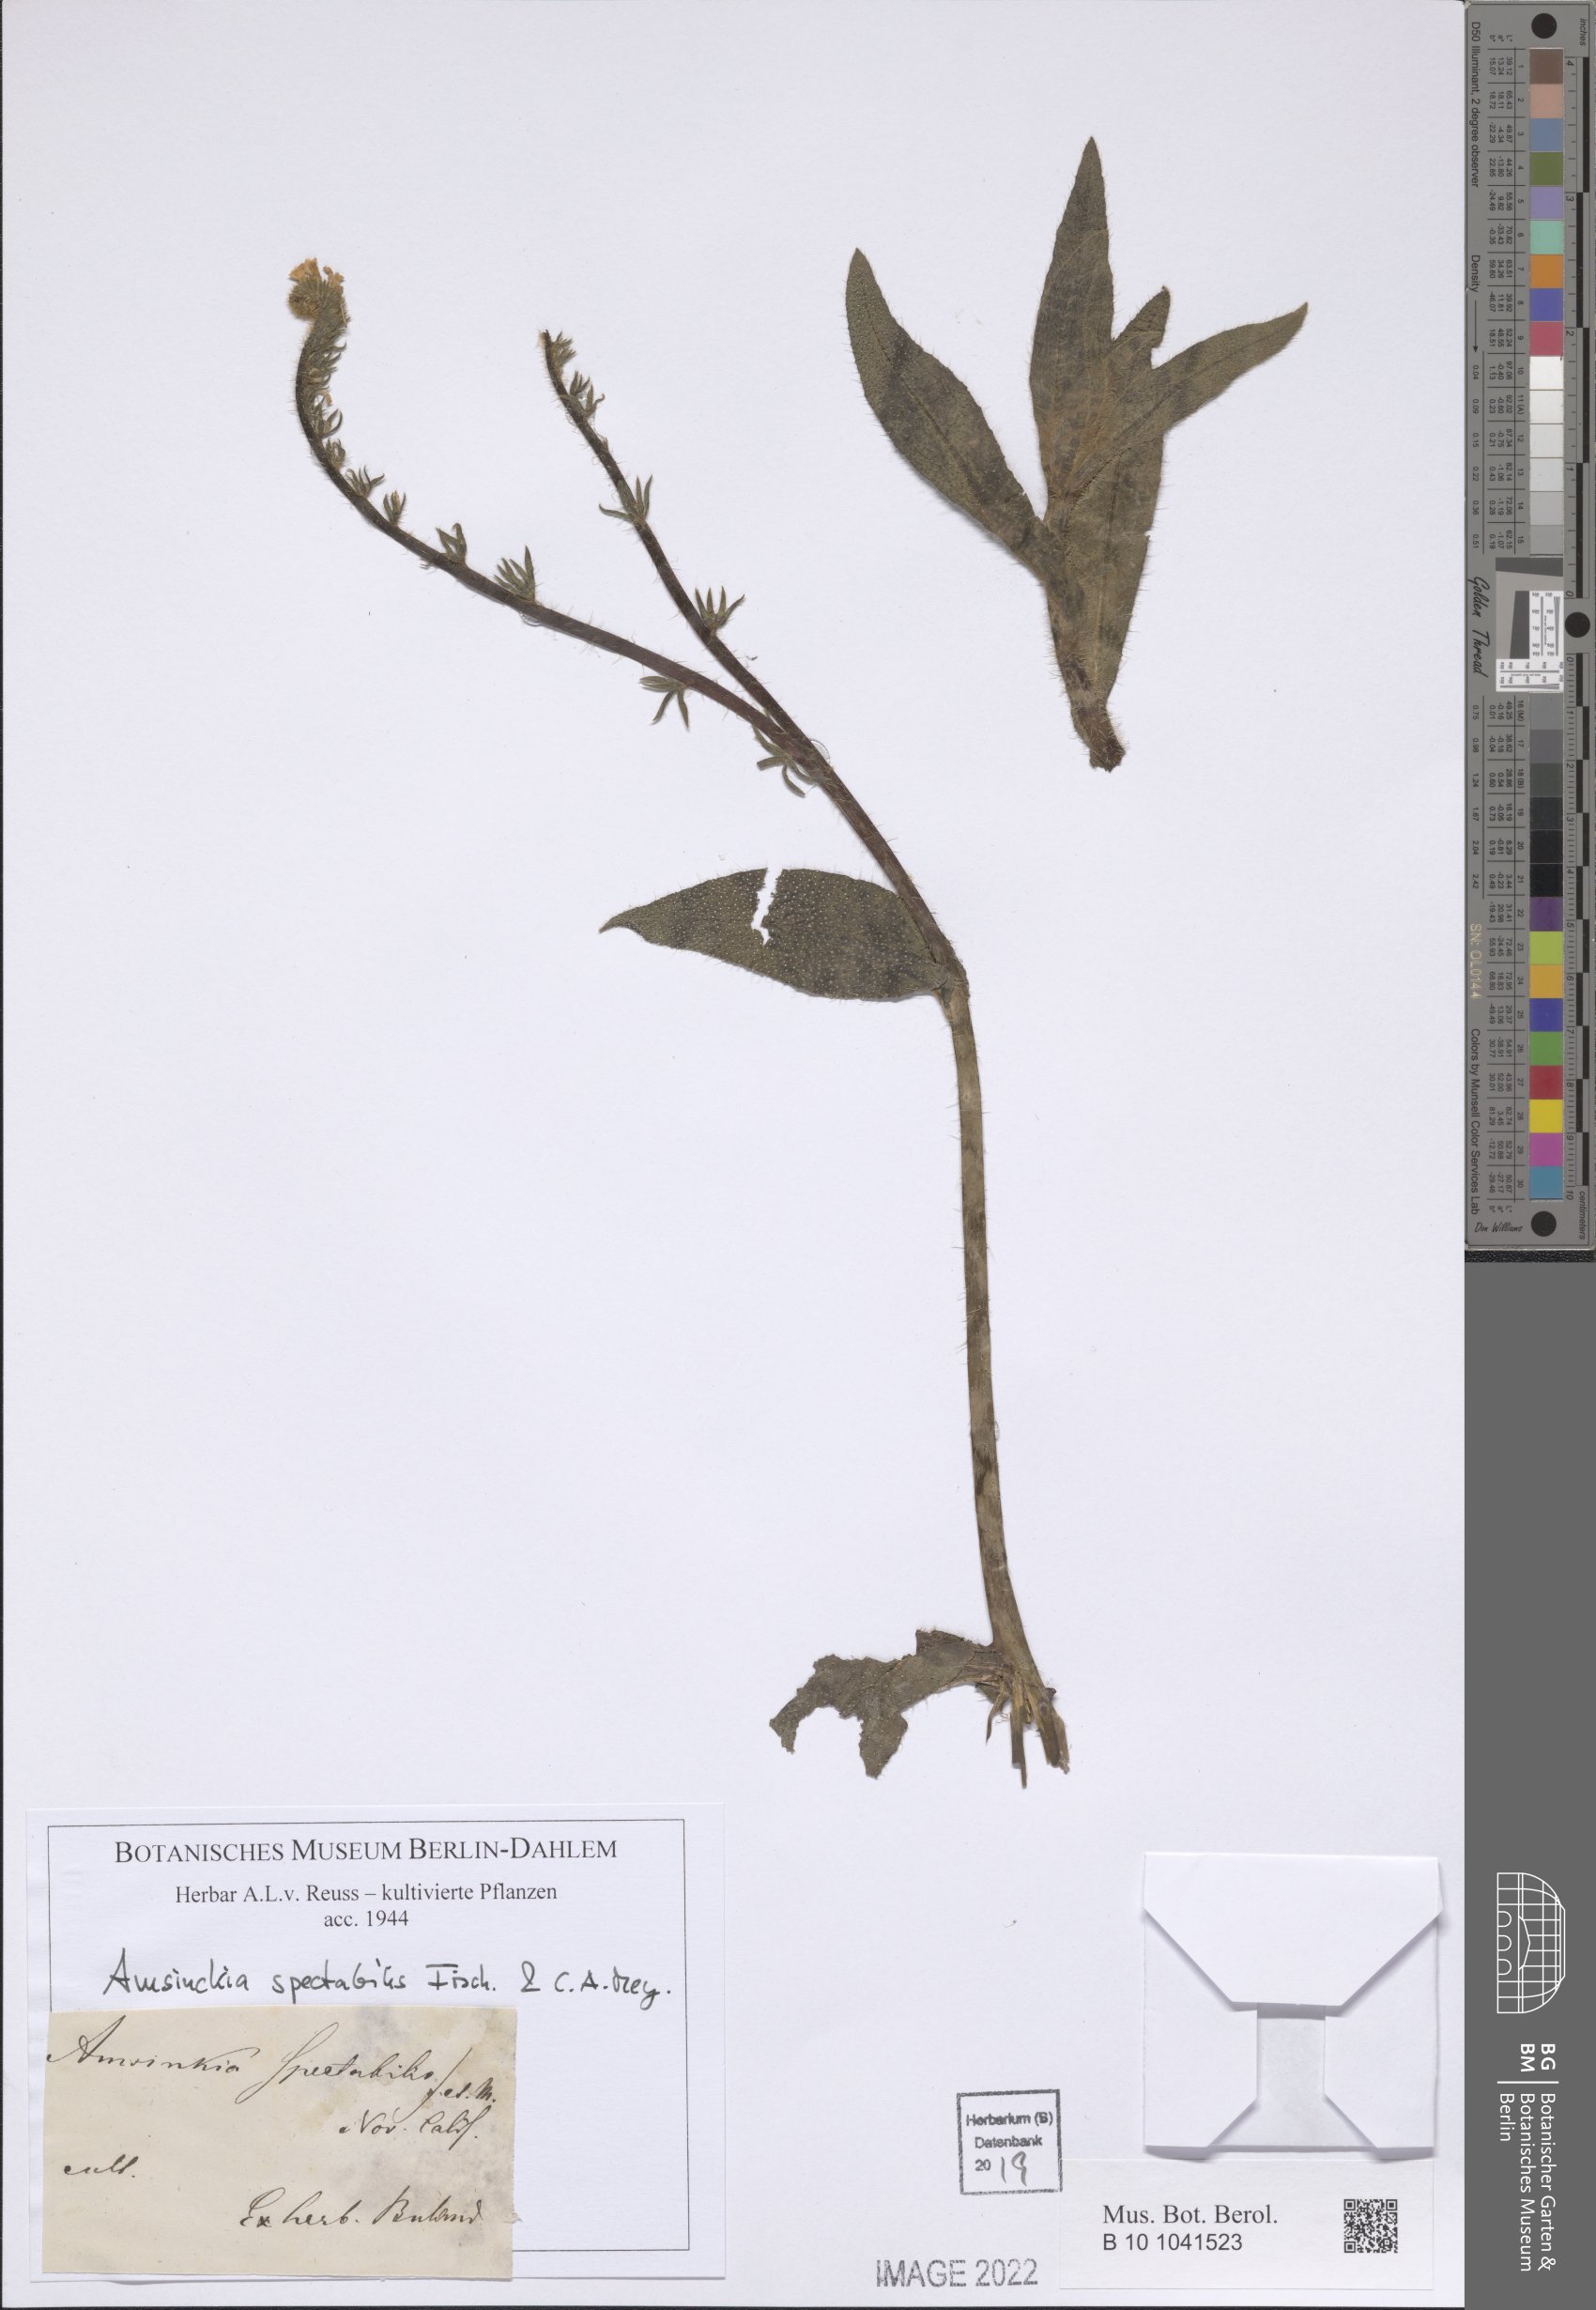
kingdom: Plantae
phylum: Tracheophyta
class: Magnoliopsida
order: Boraginales
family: Boraginaceae
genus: Amsinckia
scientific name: Amsinckia spectabilis
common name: Seaside fiddleneck
